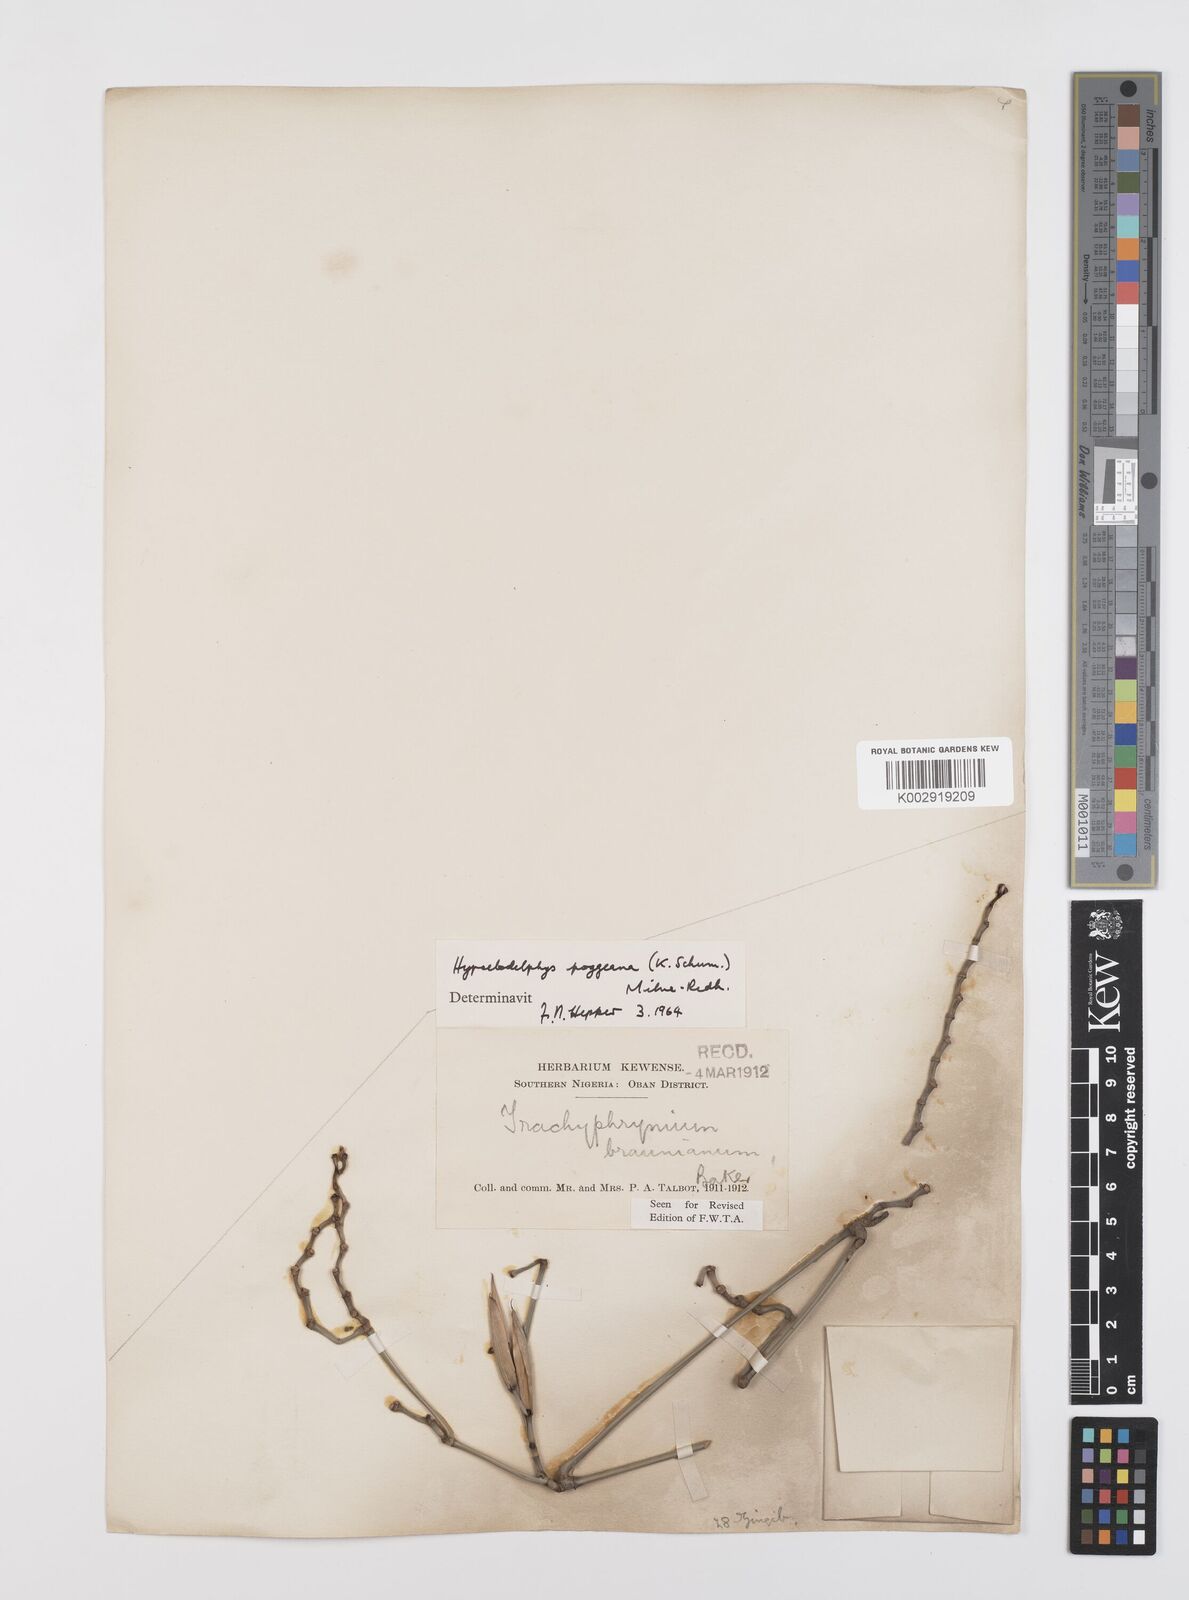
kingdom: Plantae
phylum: Tracheophyta
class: Liliopsida
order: Zingiberales
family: Marantaceae
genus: Hypselodelphys
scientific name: Hypselodelphys poggeana
